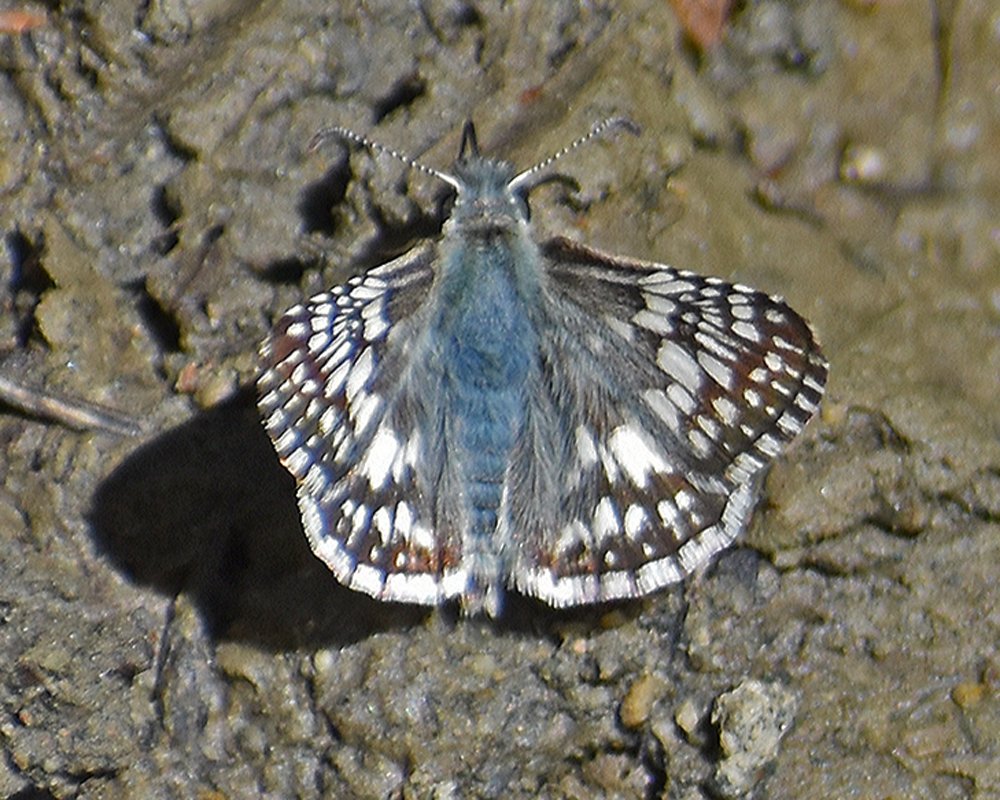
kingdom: Animalia
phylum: Arthropoda
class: Insecta
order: Lepidoptera
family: Hesperiidae
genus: Pyrgus
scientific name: Pyrgus communis
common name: Common Checkered-Skipper
